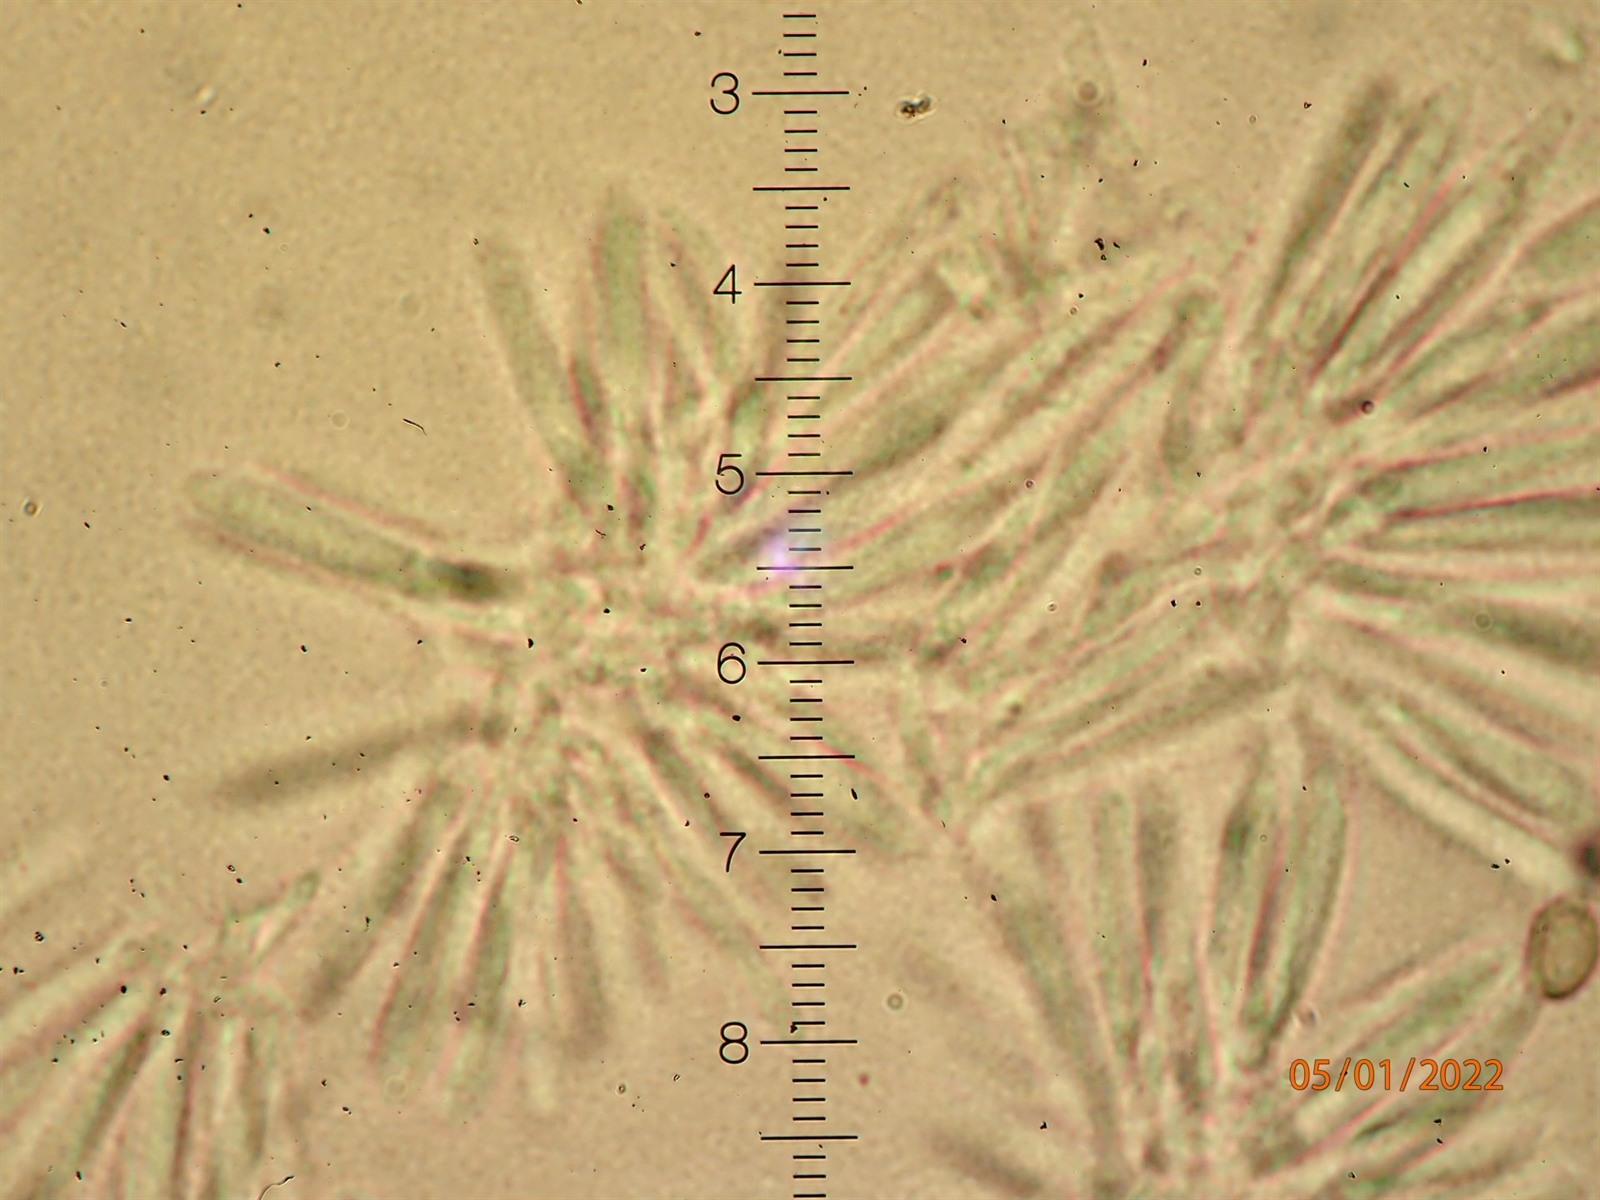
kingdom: Fungi
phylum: Ascomycota
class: Leotiomycetes
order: Helotiales
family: Gelatinodiscaceae
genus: Ombrophila
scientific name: Ombrophila juniperinella
